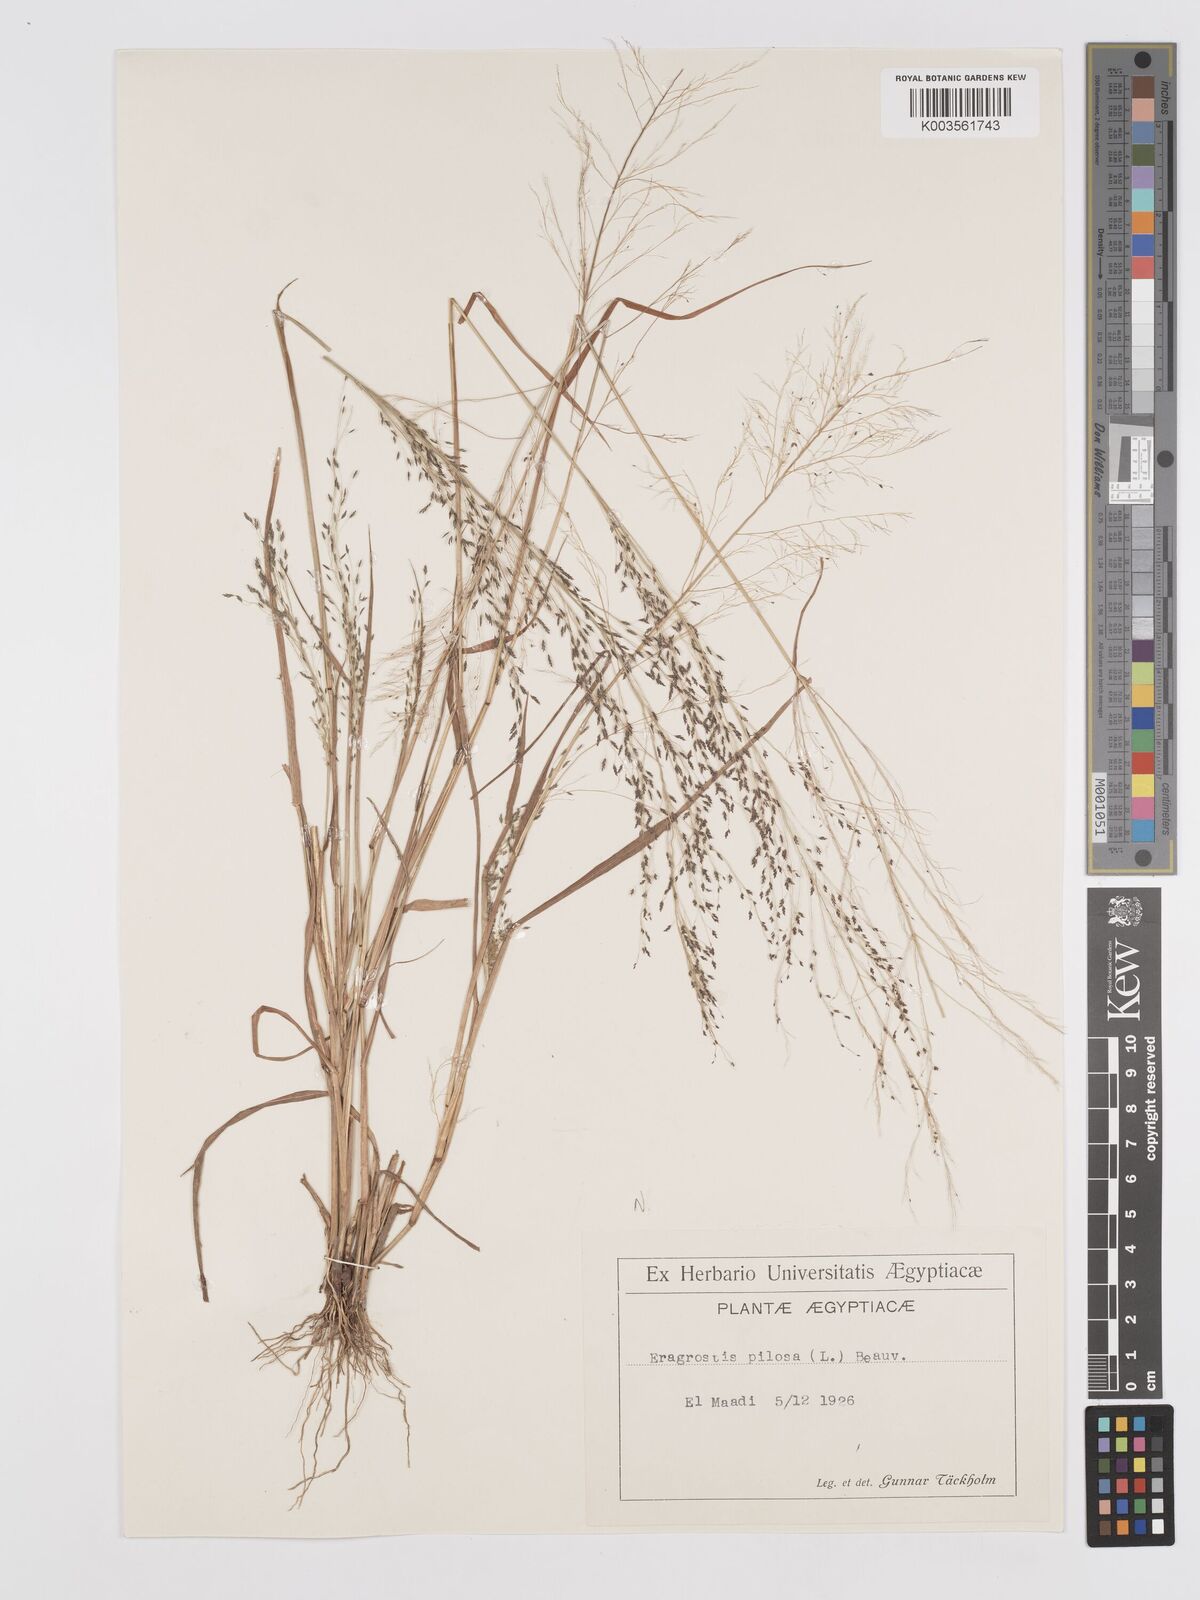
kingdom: Plantae
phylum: Tracheophyta
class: Liliopsida
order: Poales
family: Poaceae
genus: Eragrostis
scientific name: Eragrostis pilosa
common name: Indian lovegrass
